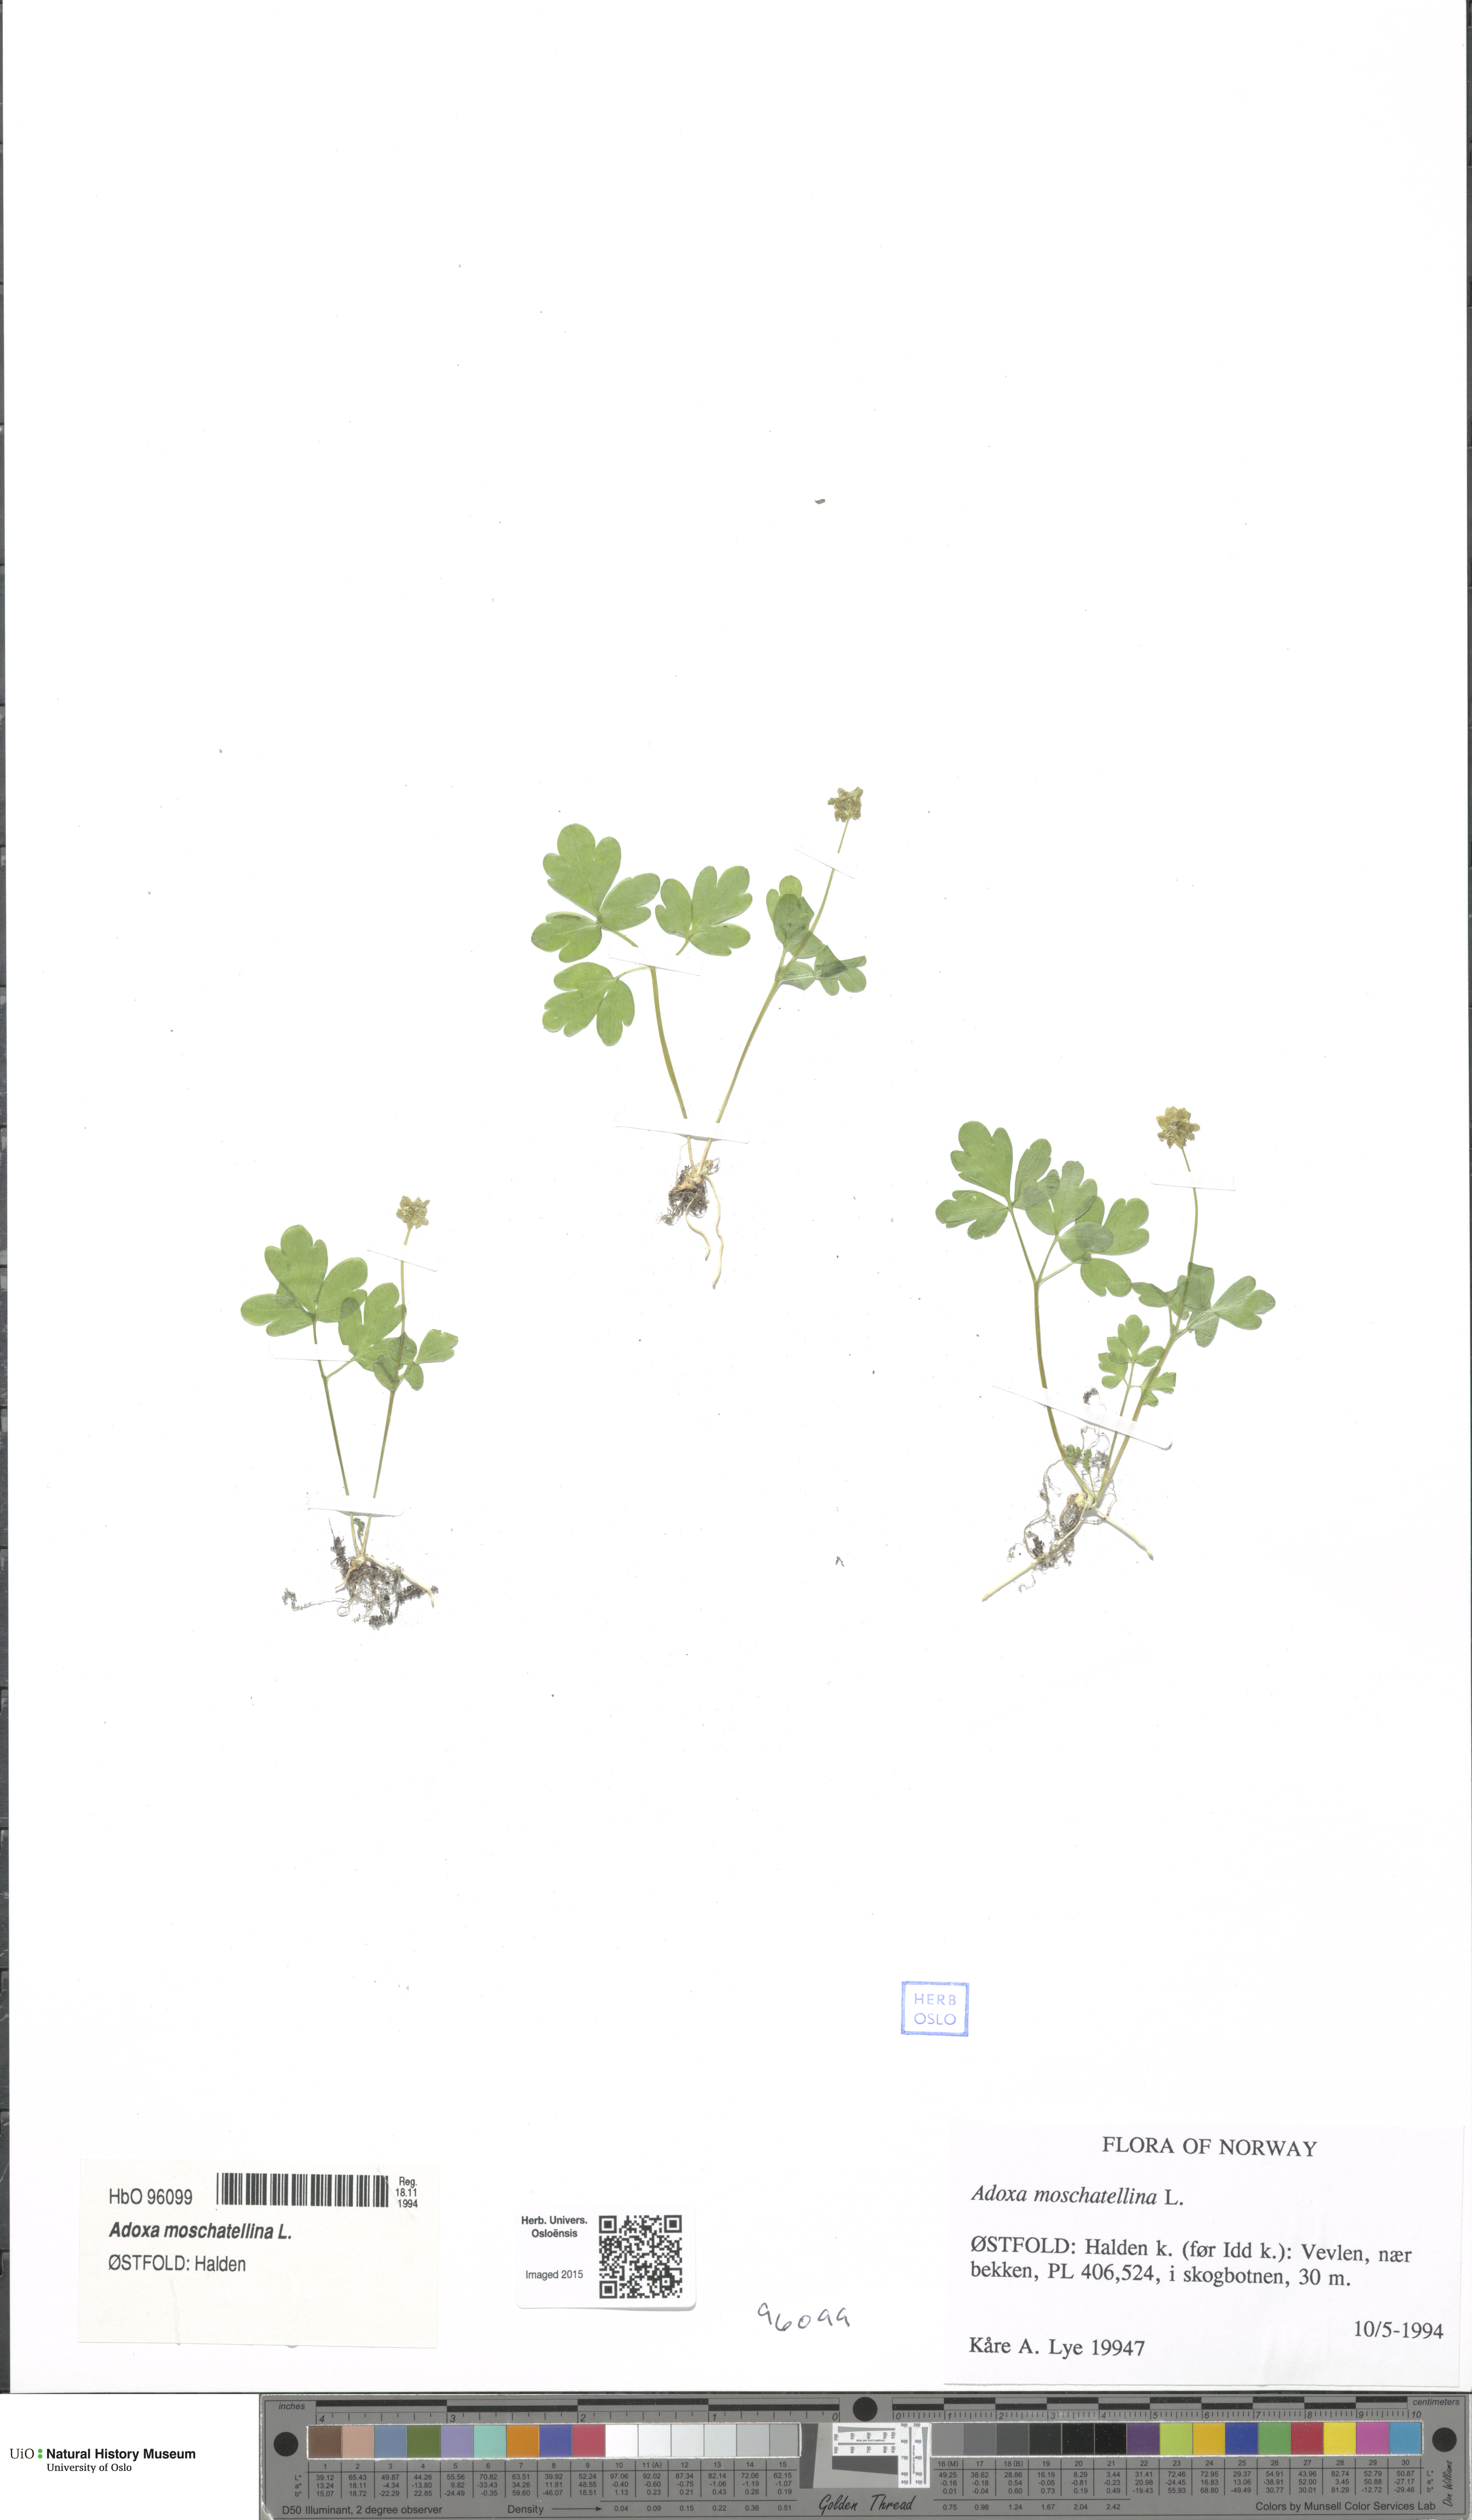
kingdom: Plantae
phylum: Tracheophyta
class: Magnoliopsida
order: Dipsacales
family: Viburnaceae
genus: Adoxa
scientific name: Adoxa moschatellina
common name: Moschatel
